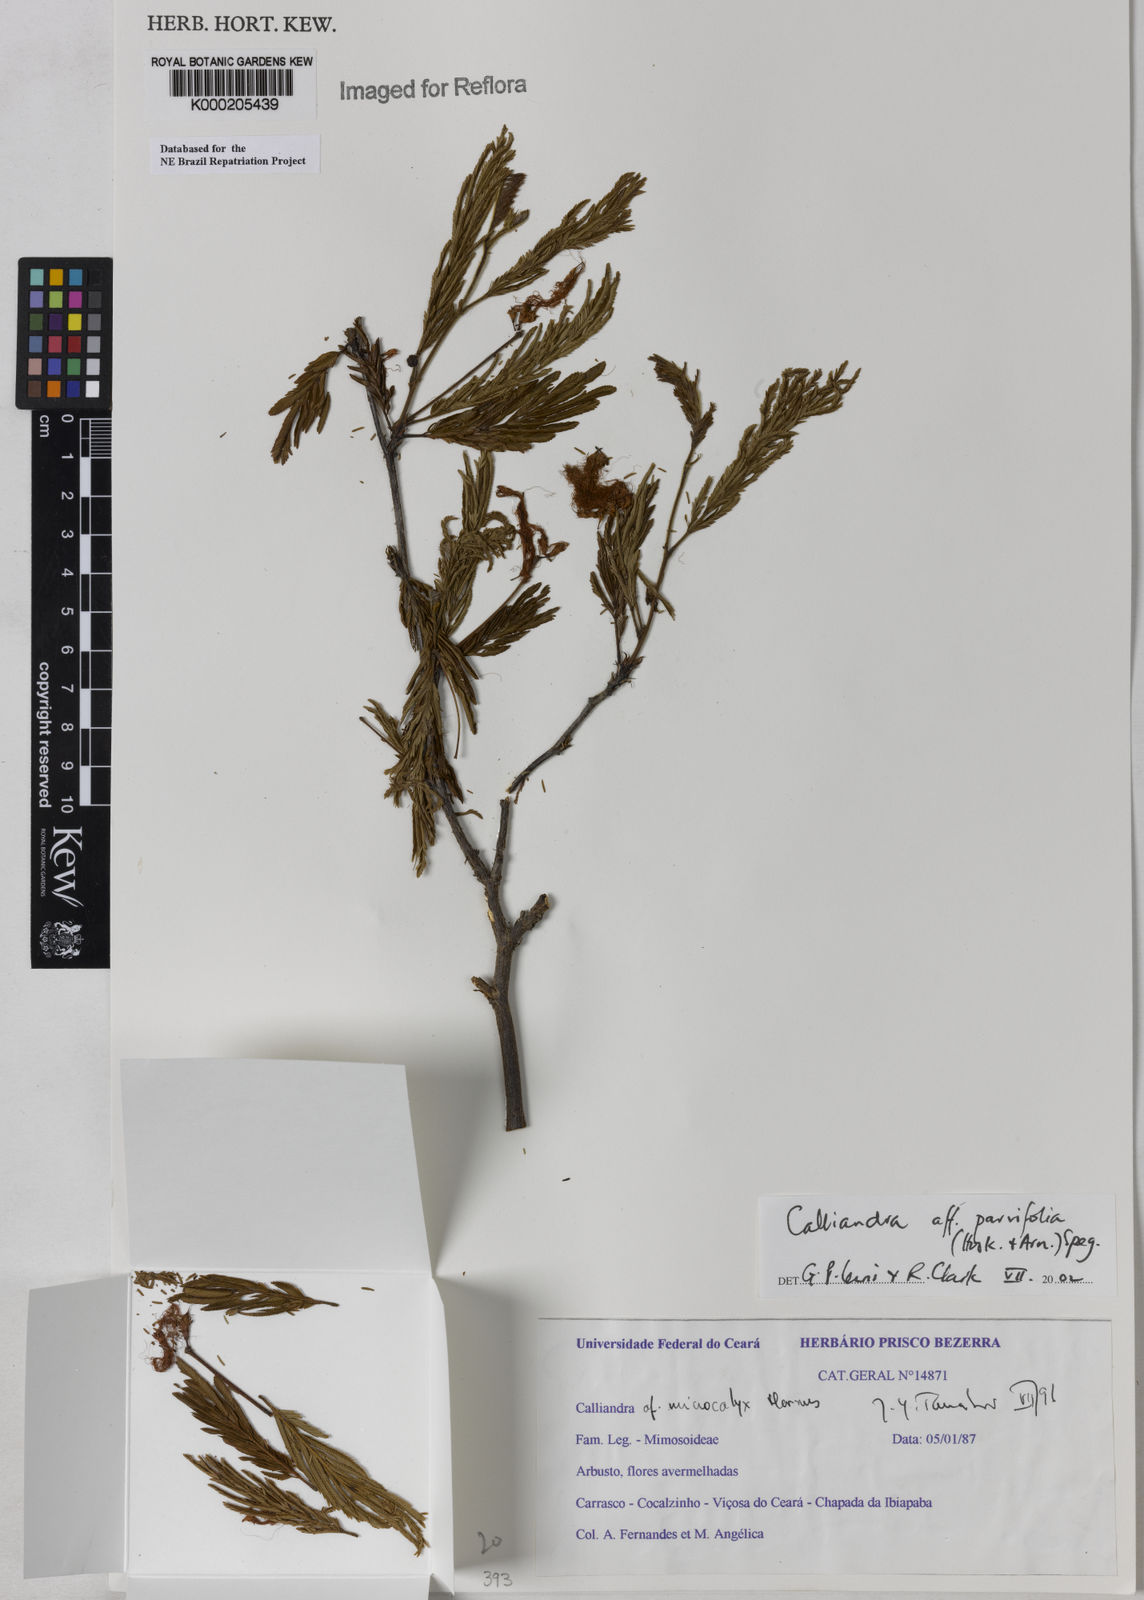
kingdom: Plantae
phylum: Tracheophyta
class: Magnoliopsida
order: Fabales
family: Fabaceae
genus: Calliandra
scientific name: Calliandra parvifolia
